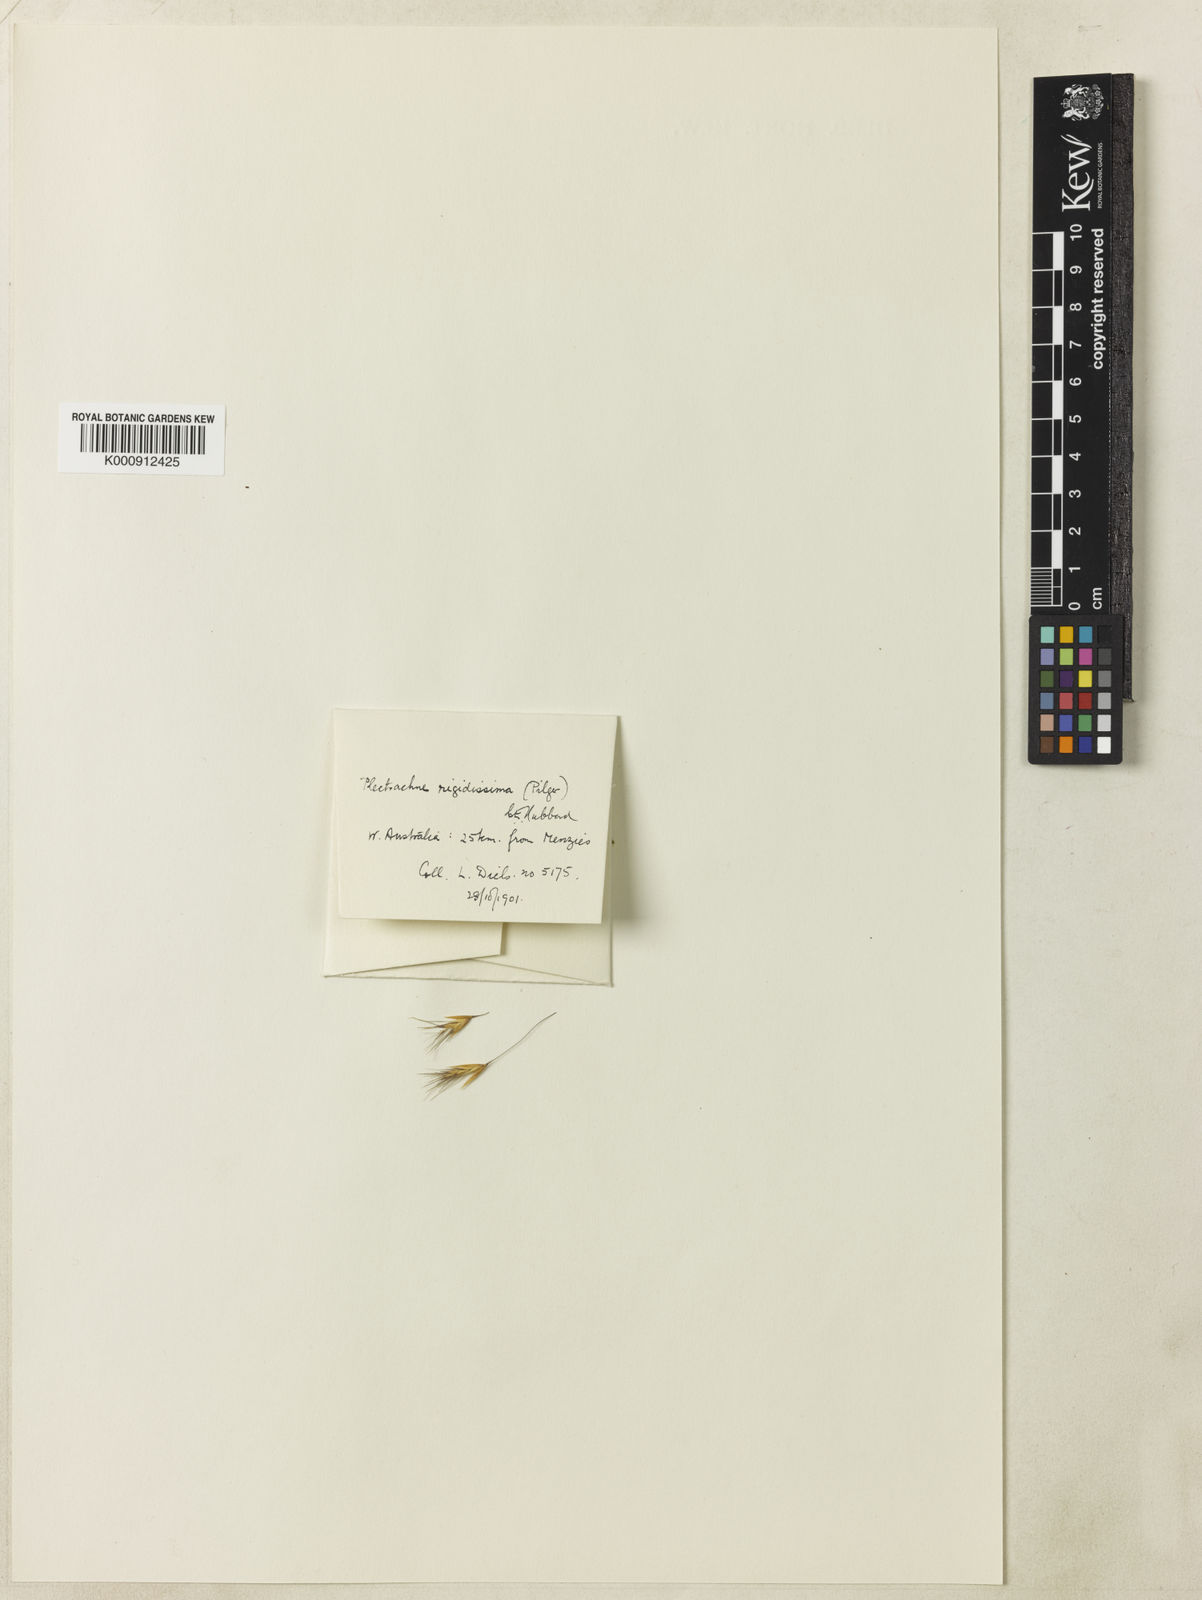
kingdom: Plantae
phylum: Tracheophyta
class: Liliopsida
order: Poales
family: Poaceae
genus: Triodia
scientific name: Triodia rigidissima
